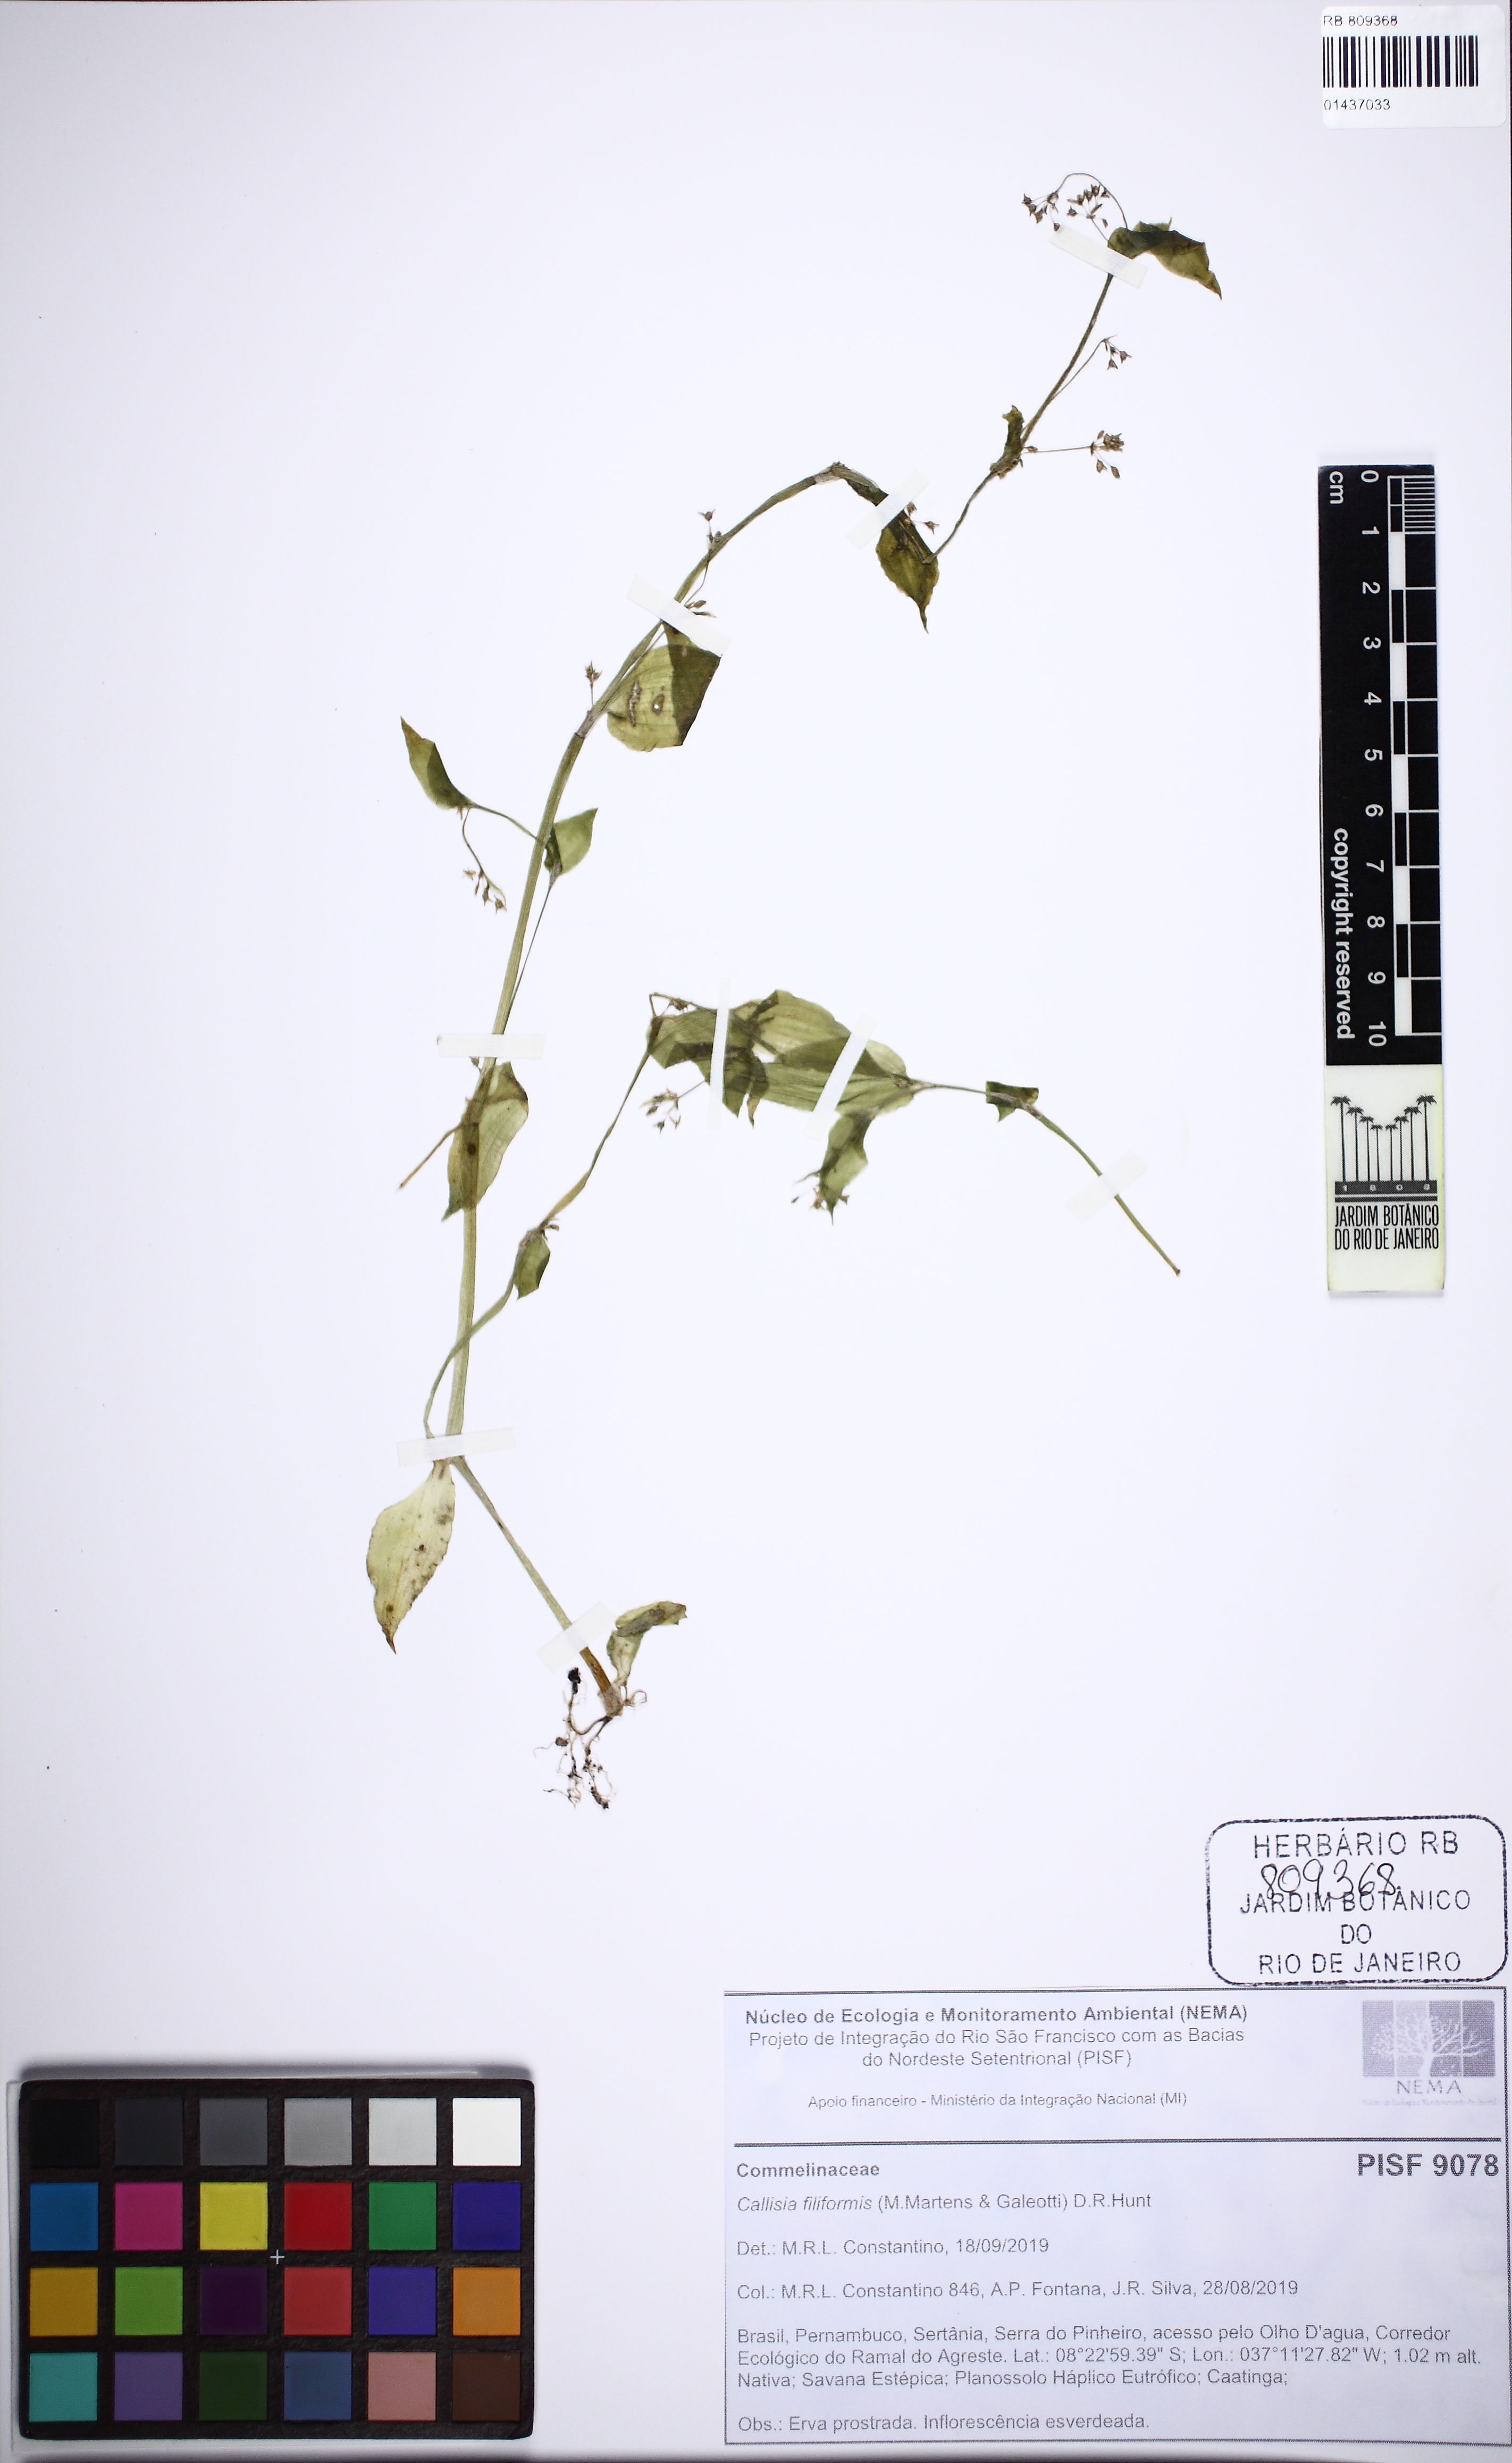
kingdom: Plantae
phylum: Tracheophyta
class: Liliopsida
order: Commelinales
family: Commelinaceae
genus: Callisia
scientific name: Callisia filiformis
